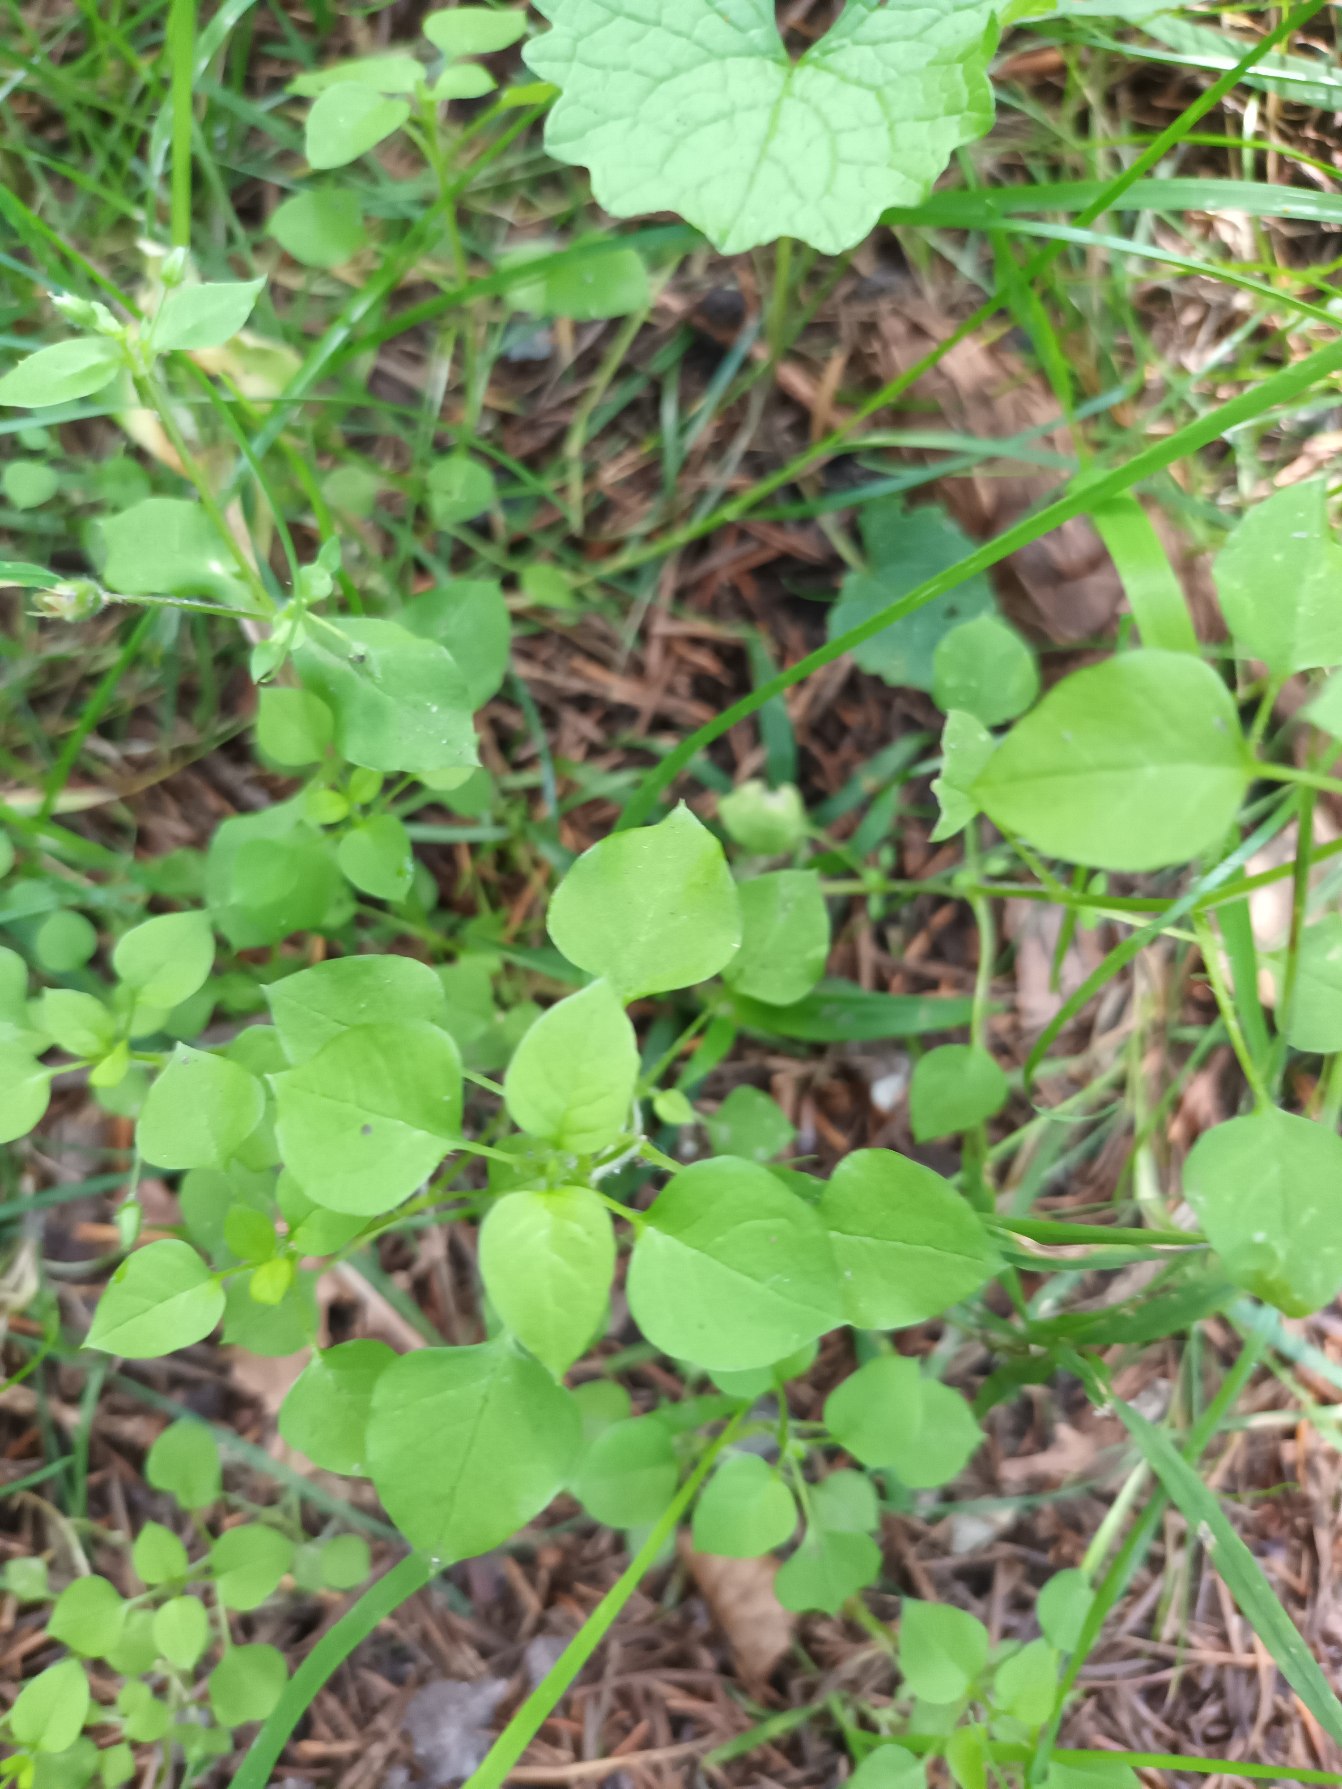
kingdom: Plantae
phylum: Tracheophyta
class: Magnoliopsida
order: Caryophyllales
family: Caryophyllaceae
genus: Stellaria
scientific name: Stellaria media
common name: Almindelig fuglegræs
